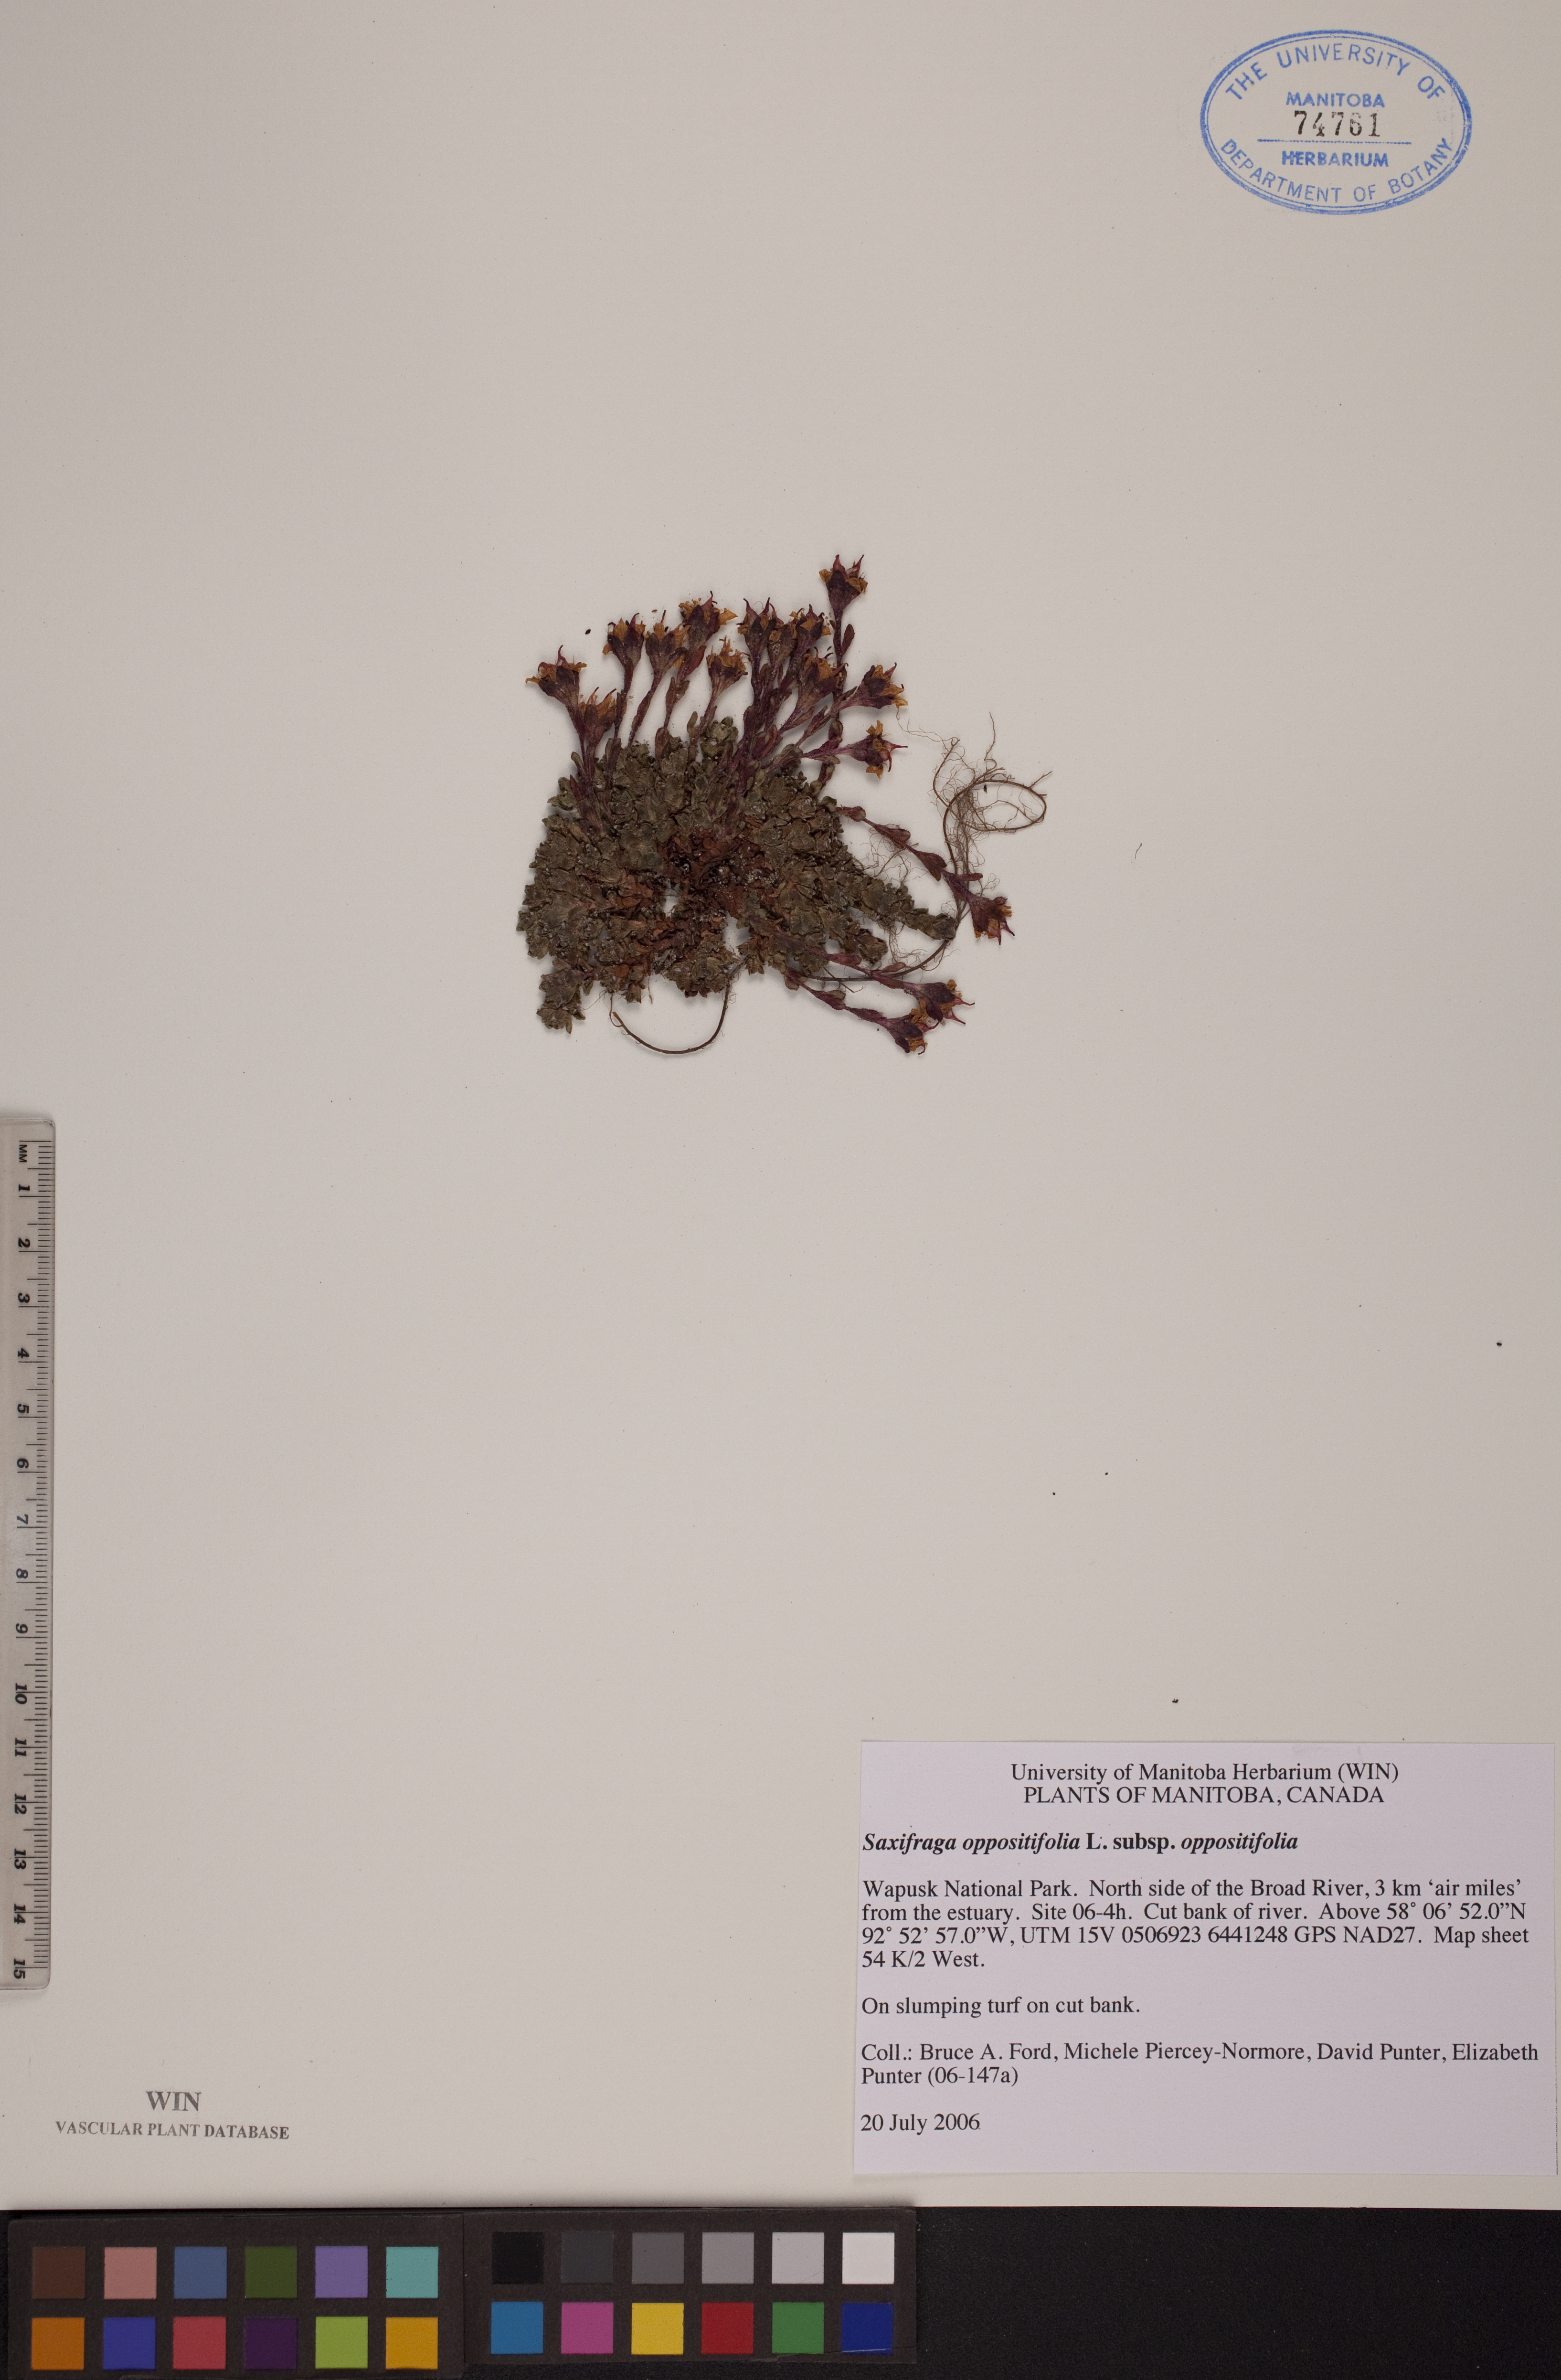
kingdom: Plantae
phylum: Tracheophyta
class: Magnoliopsida
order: Saxifragales
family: Saxifragaceae
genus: Saxifraga
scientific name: Saxifraga oppositifolia
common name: Purple saxifrage
